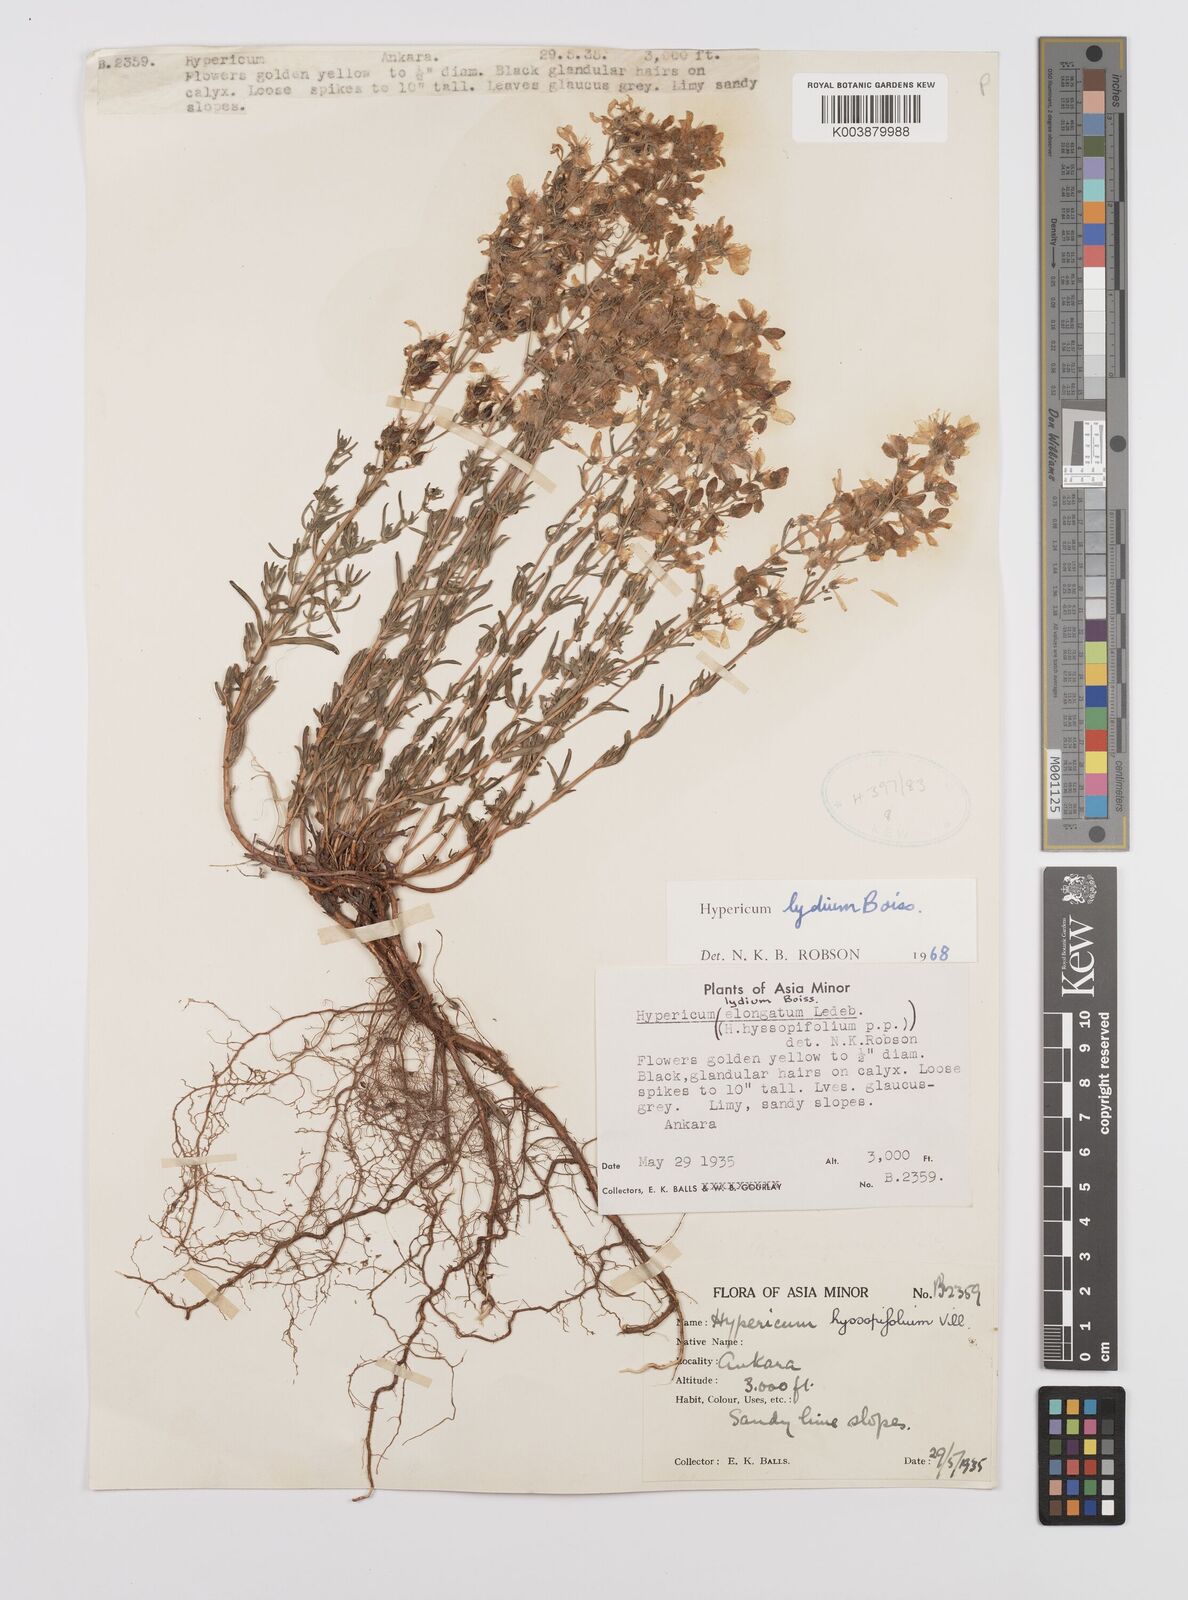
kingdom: Plantae
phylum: Tracheophyta
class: Magnoliopsida
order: Malpighiales
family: Hypericaceae
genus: Hypericum
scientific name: Hypericum lydium
